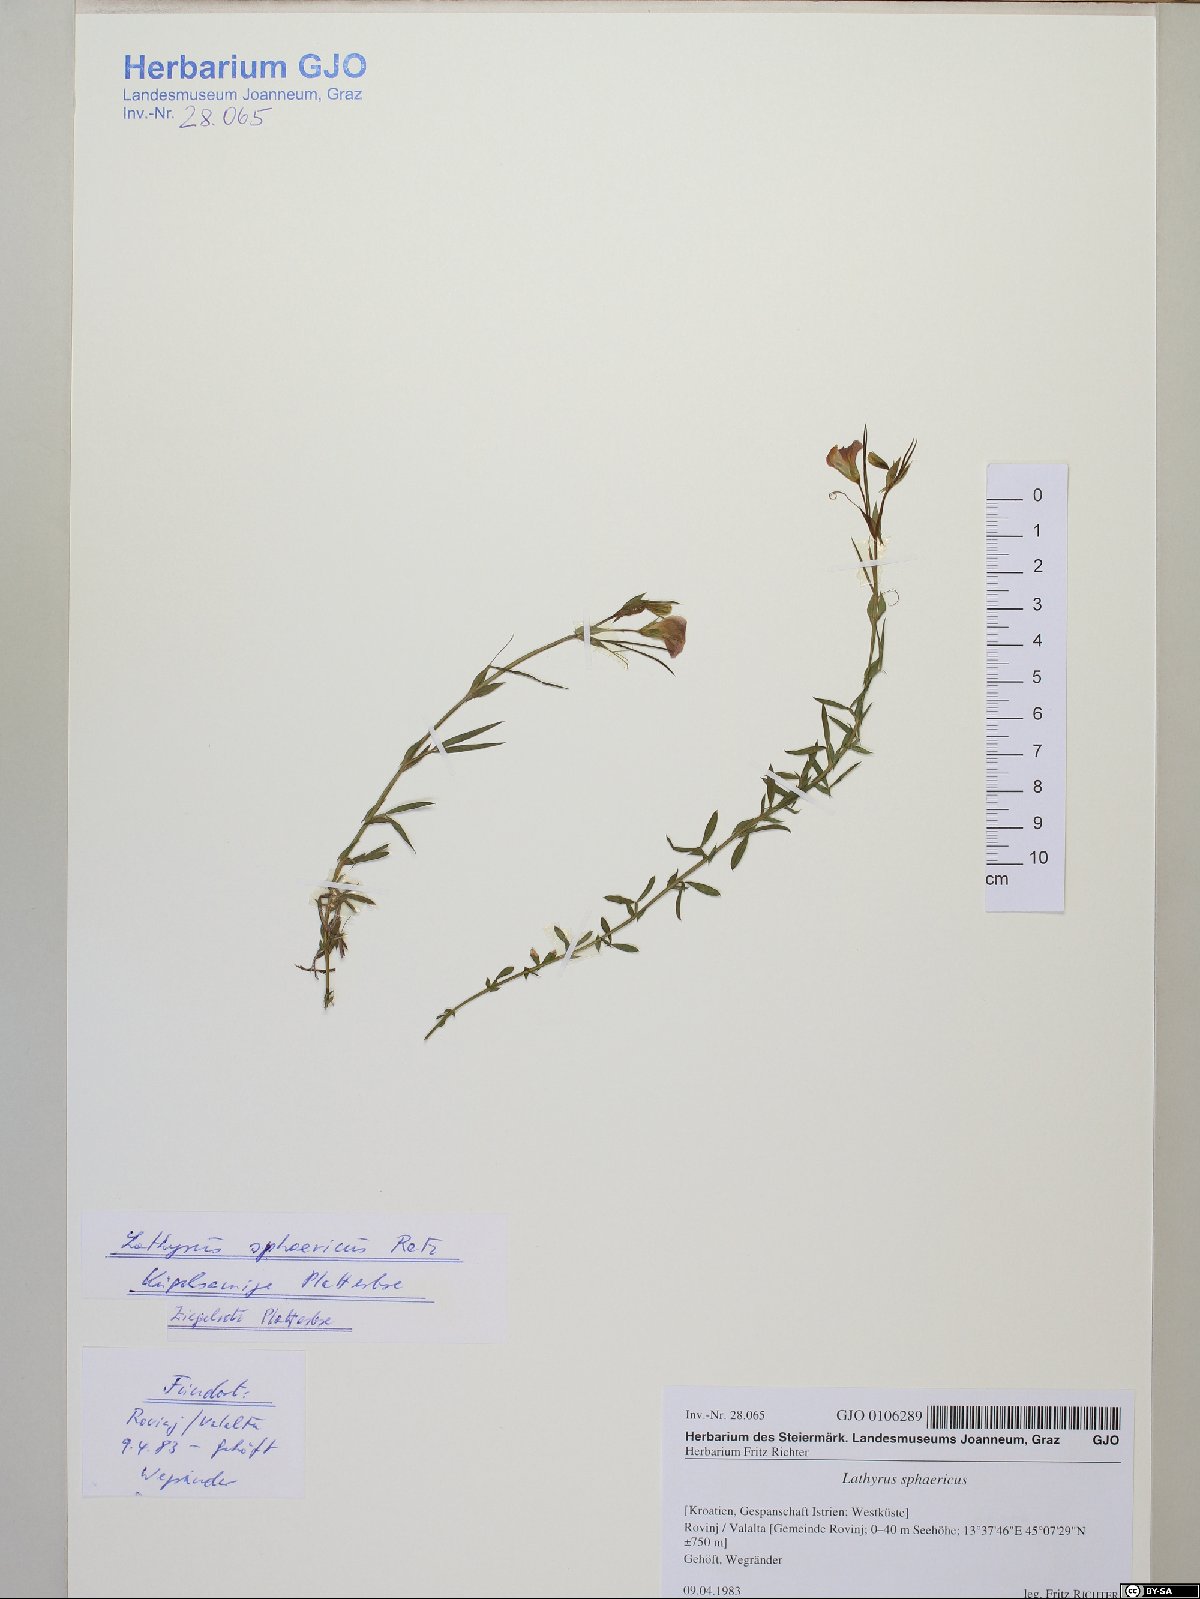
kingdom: Plantae
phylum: Tracheophyta
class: Magnoliopsida
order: Fabales
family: Fabaceae
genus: Lathyrus
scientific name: Lathyrus setifolius
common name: Brown vetchling
